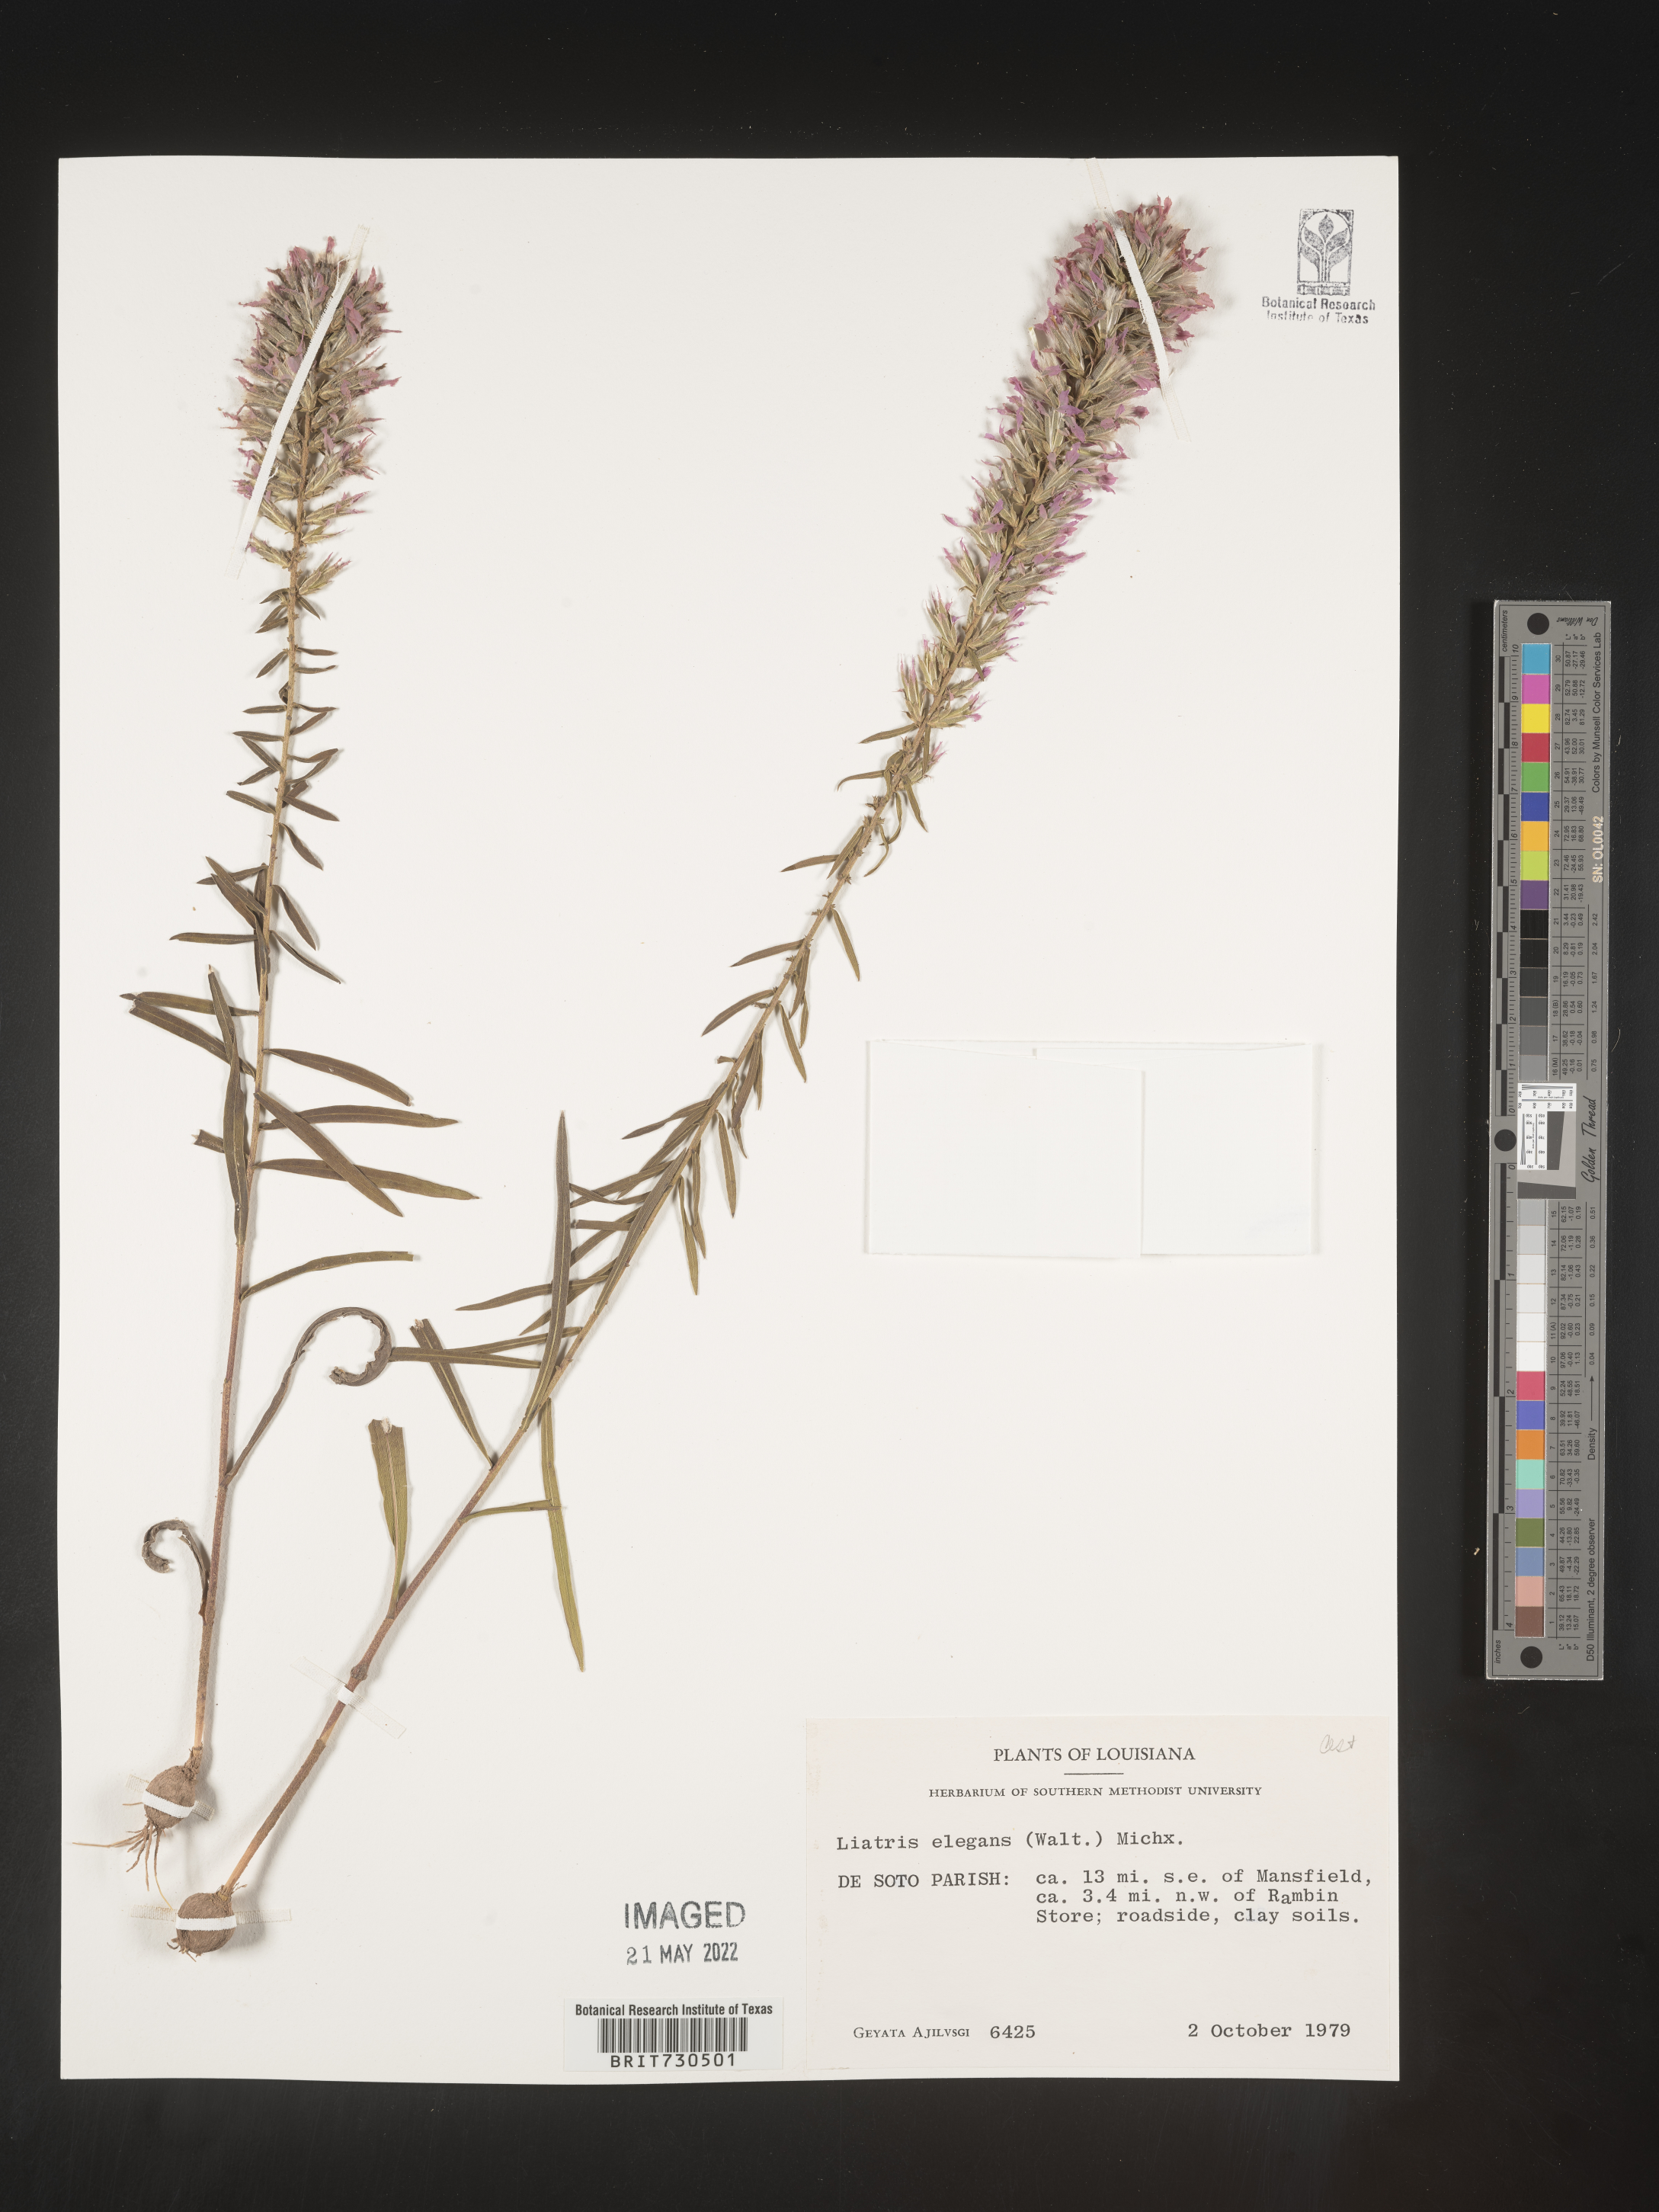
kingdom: Plantae
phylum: Tracheophyta
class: Magnoliopsida
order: Asterales
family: Asteraceae
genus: Liatris
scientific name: Liatris elegans
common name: Pinkscale gayfeather
